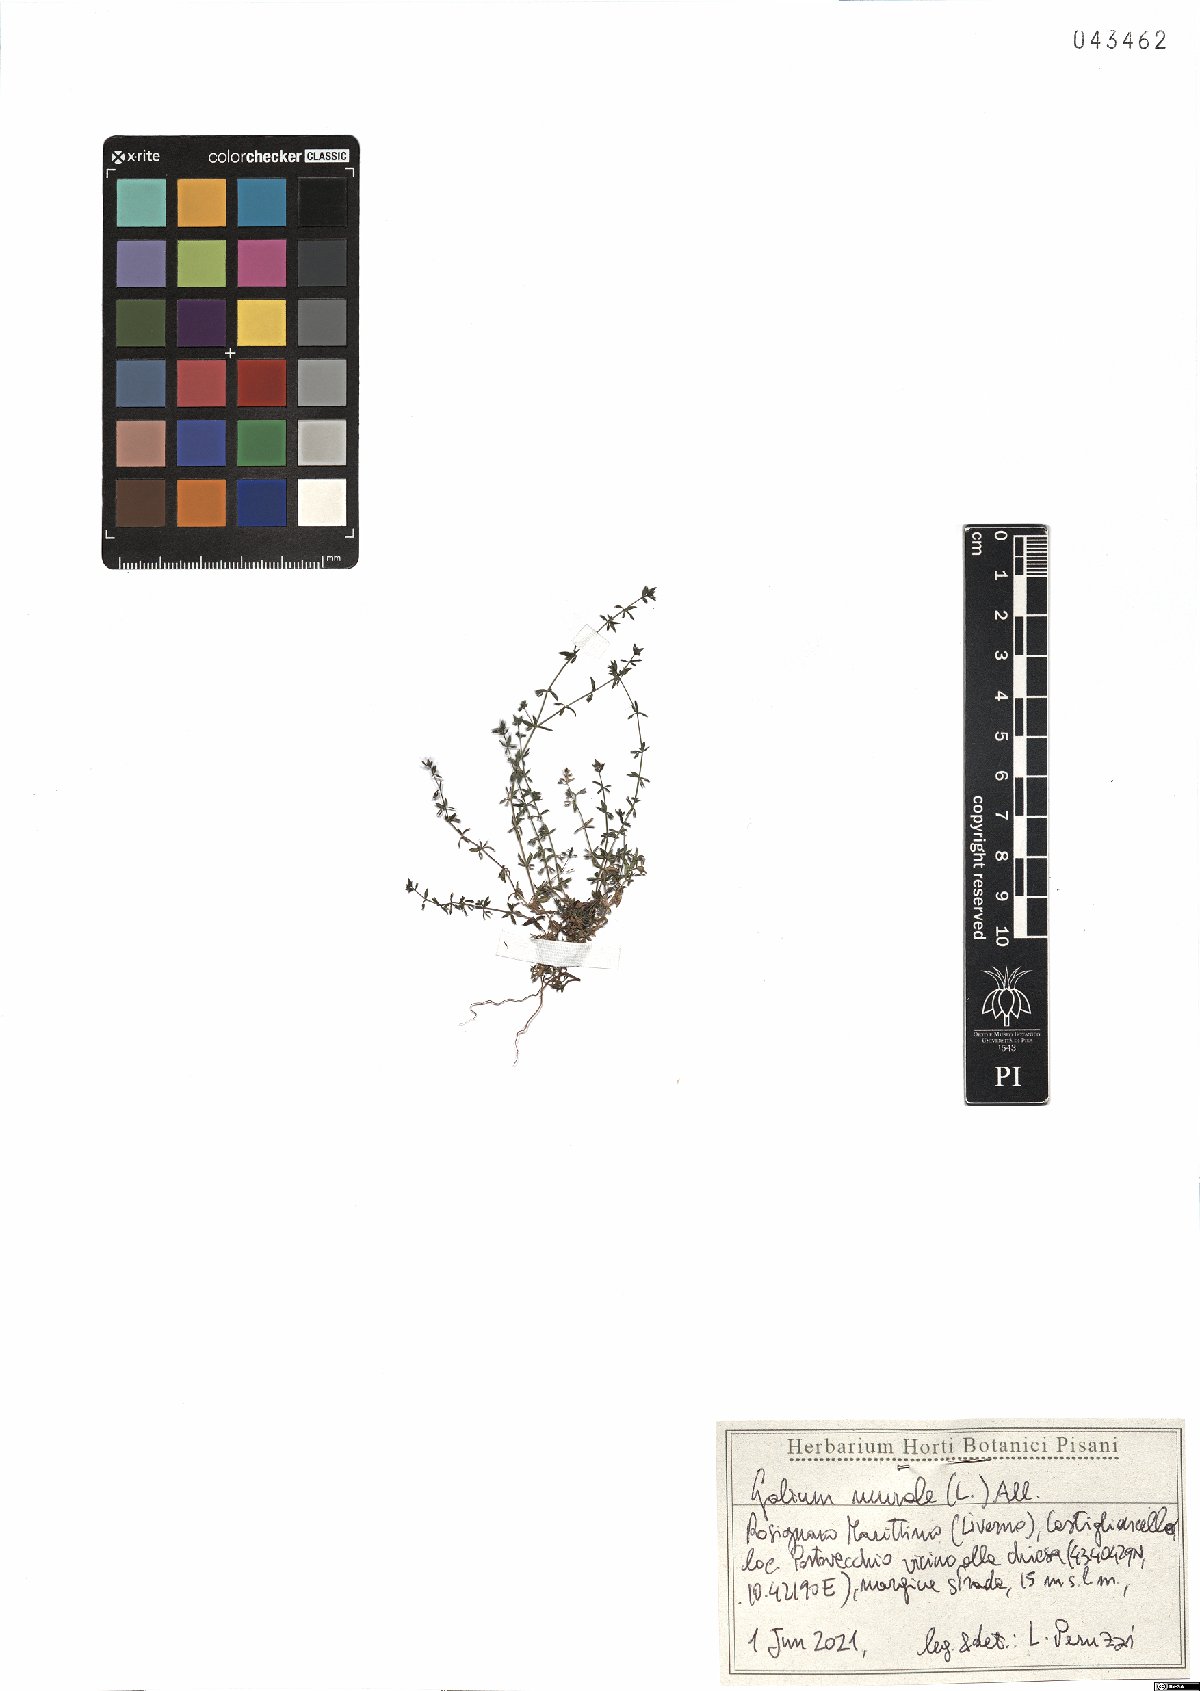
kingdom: Plantae
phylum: Tracheophyta
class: Magnoliopsida
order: Gentianales
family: Rubiaceae
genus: Galium
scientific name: Galium murale
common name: Yellow wall bedstraw
